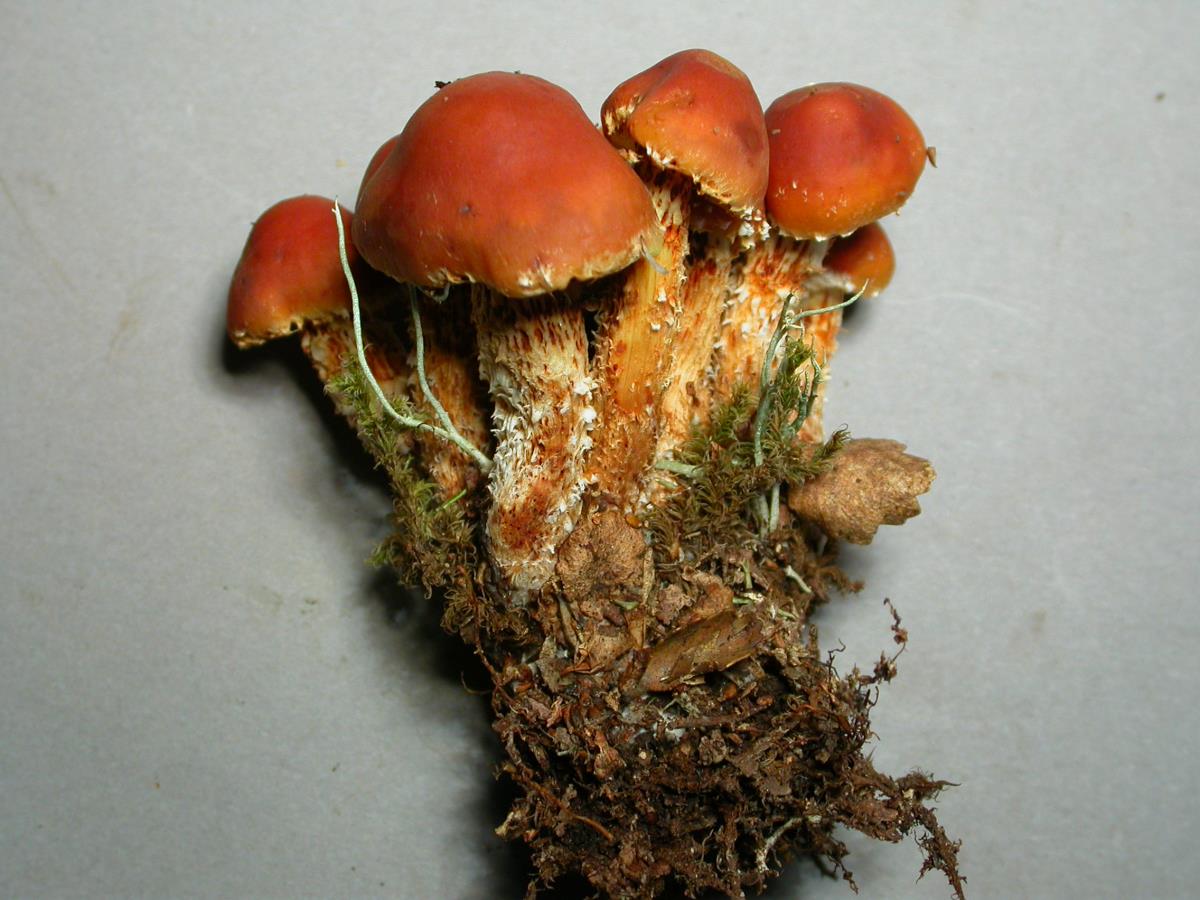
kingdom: Fungi
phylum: Basidiomycota
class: Agaricomycetes
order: Agaricales
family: Strophariaceae
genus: Hypholoma
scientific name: Hypholoma australianum
